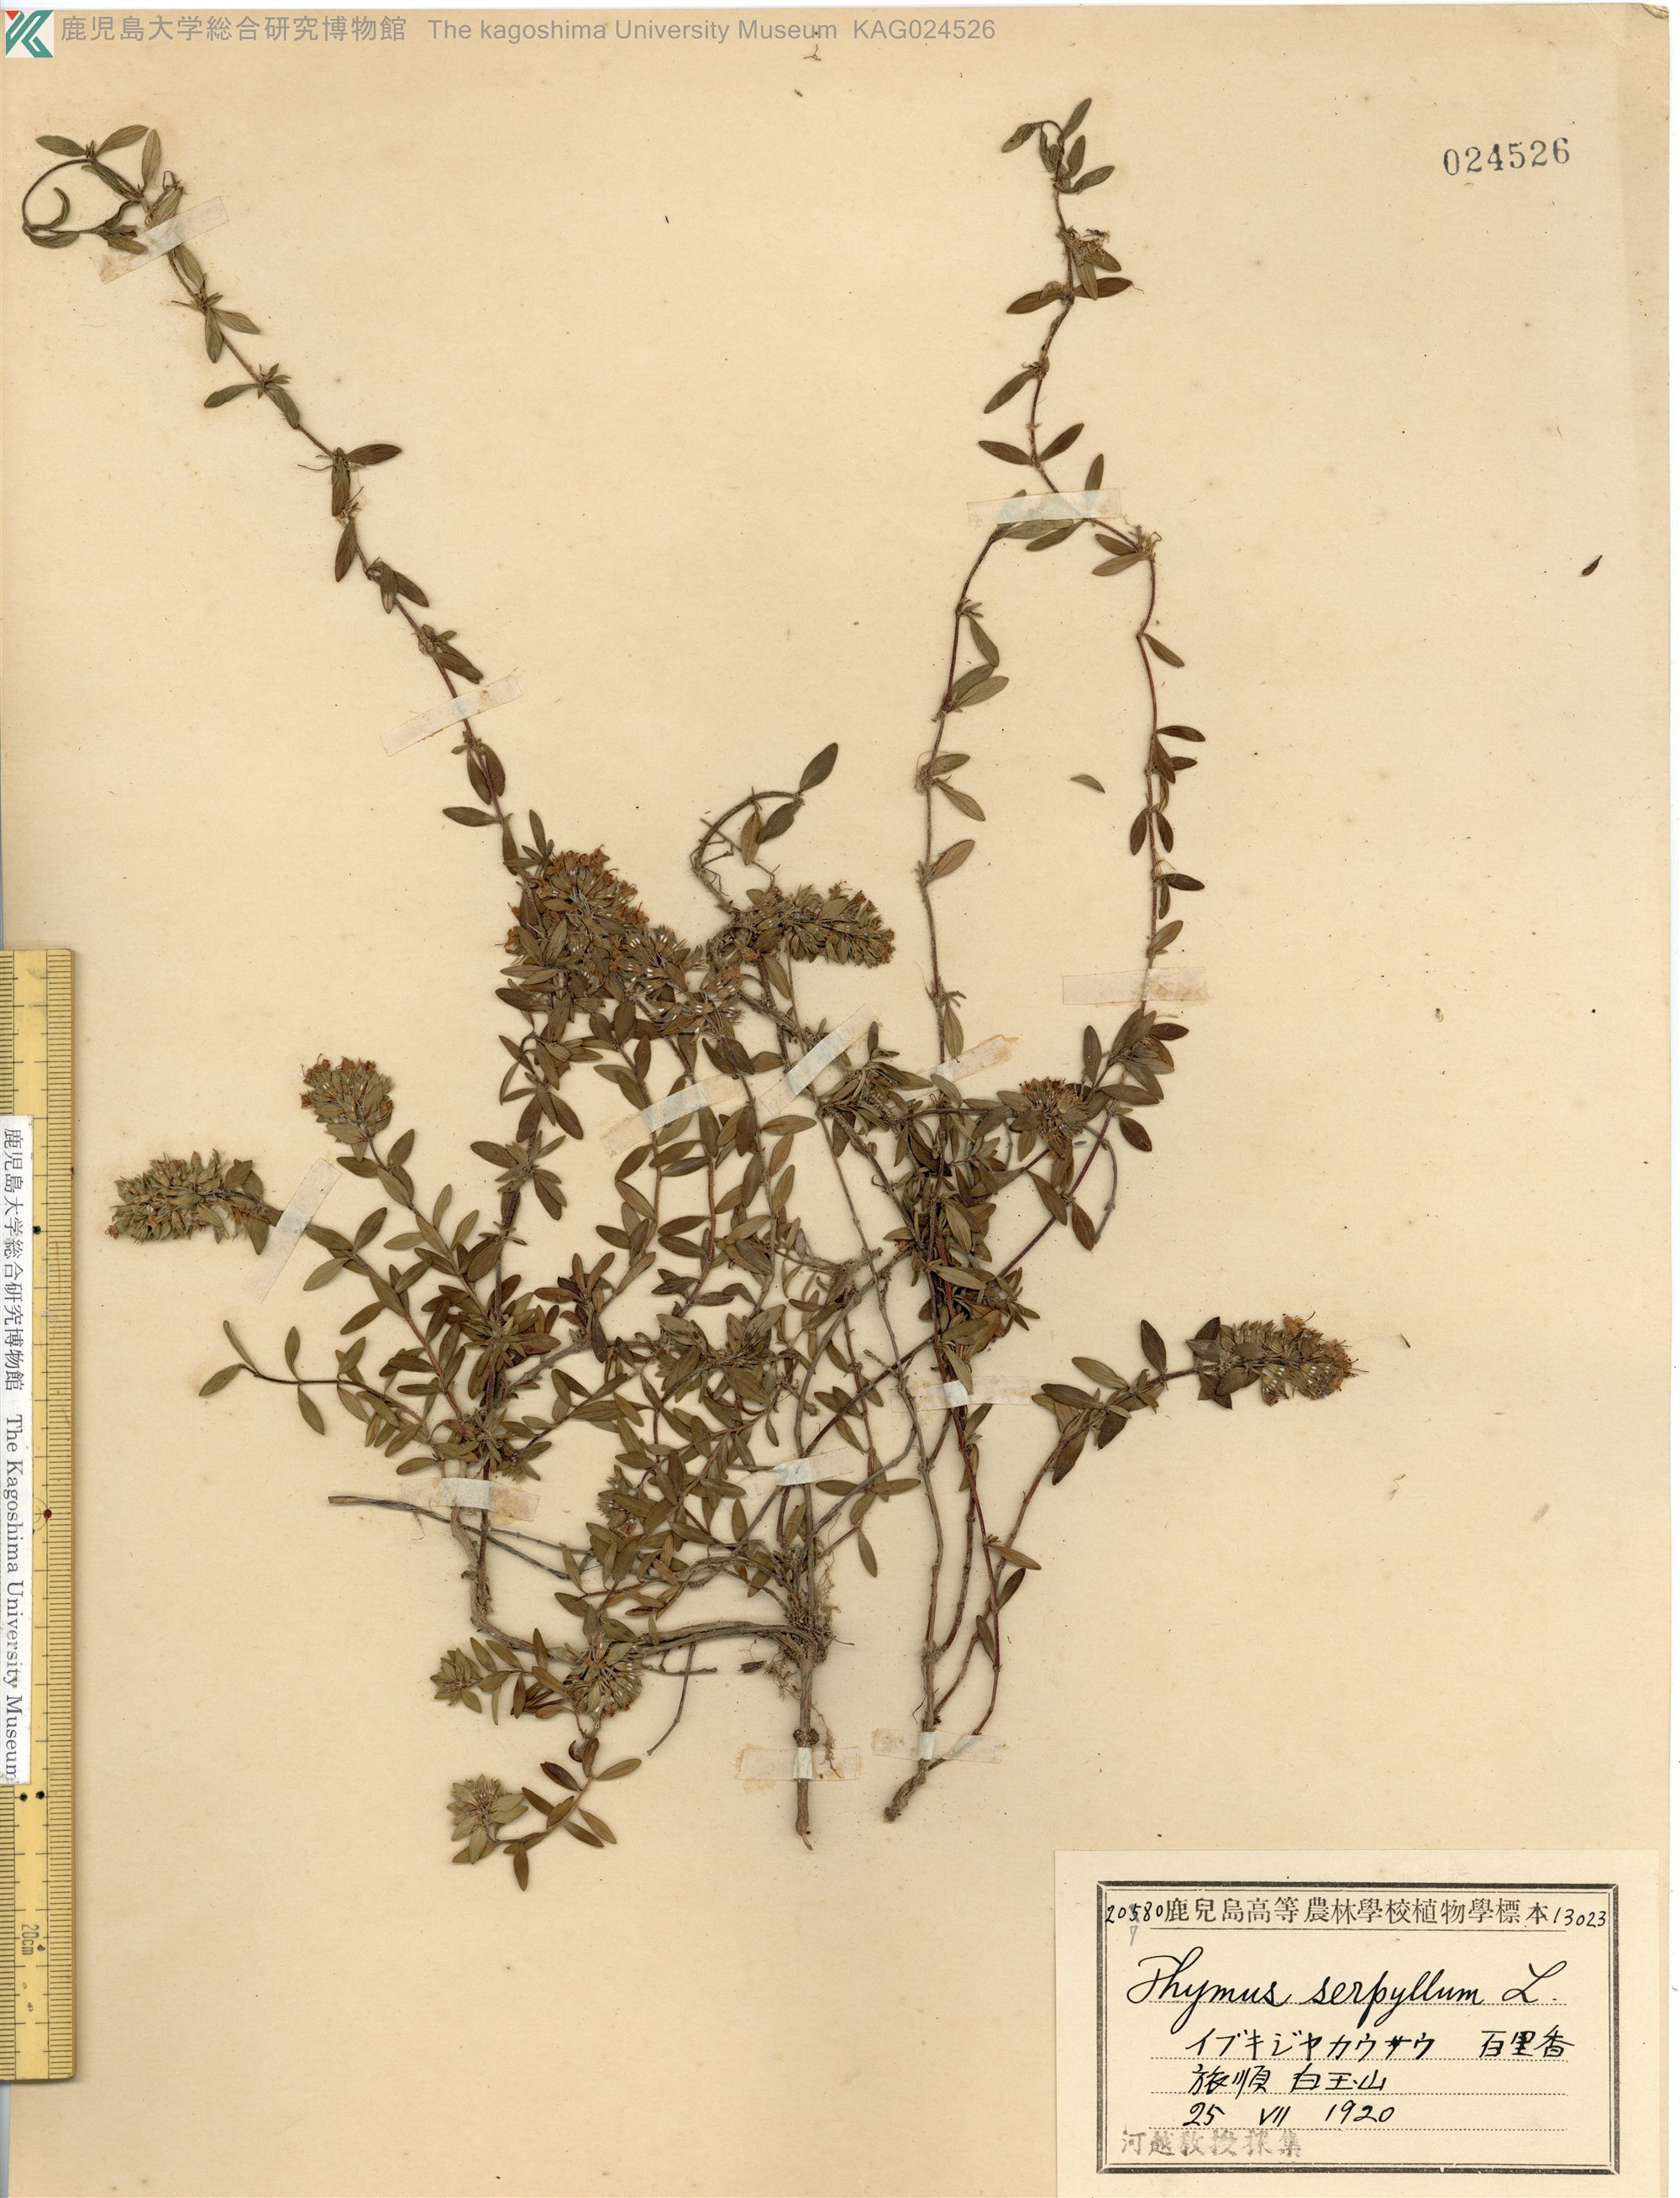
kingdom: Plantae
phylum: Tracheophyta
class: Magnoliopsida
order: Lamiales
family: Lamiaceae
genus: Thymus
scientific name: Thymus quinquecostatus
